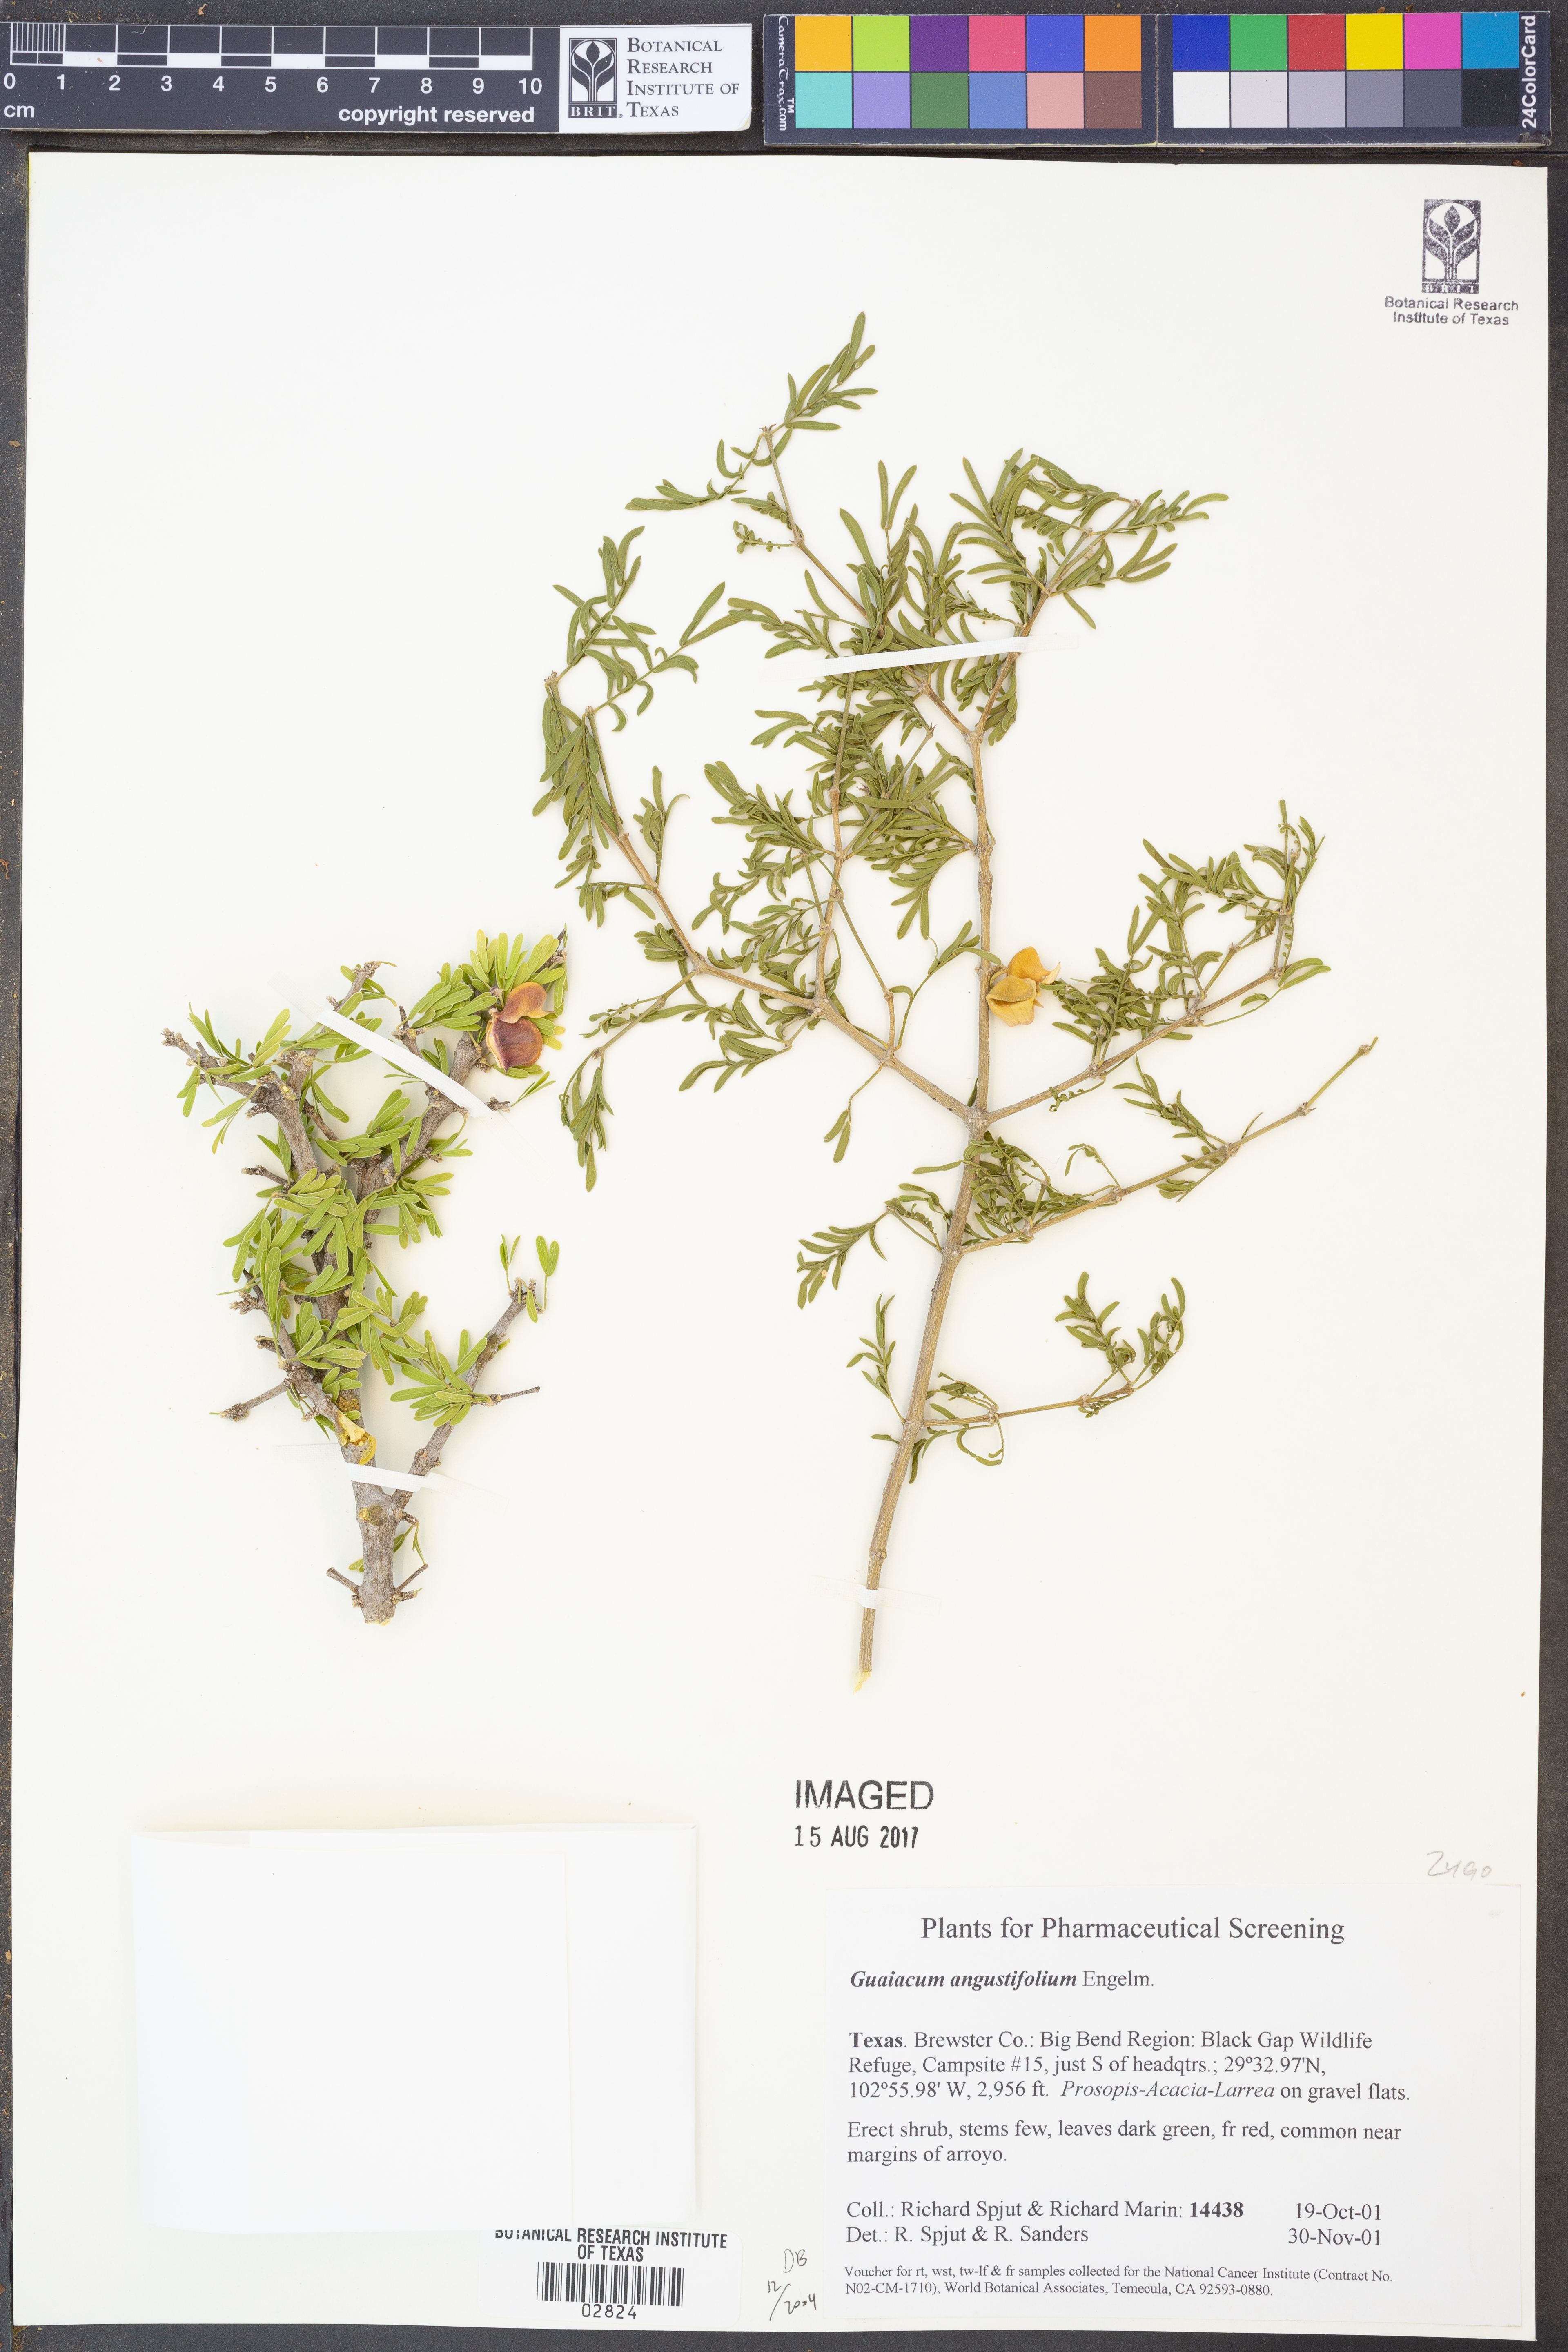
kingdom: Plantae
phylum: Tracheophyta
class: Magnoliopsida
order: Zygophyllales
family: Zygophyllaceae
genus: Porlieria
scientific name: Porlieria angustifolia
